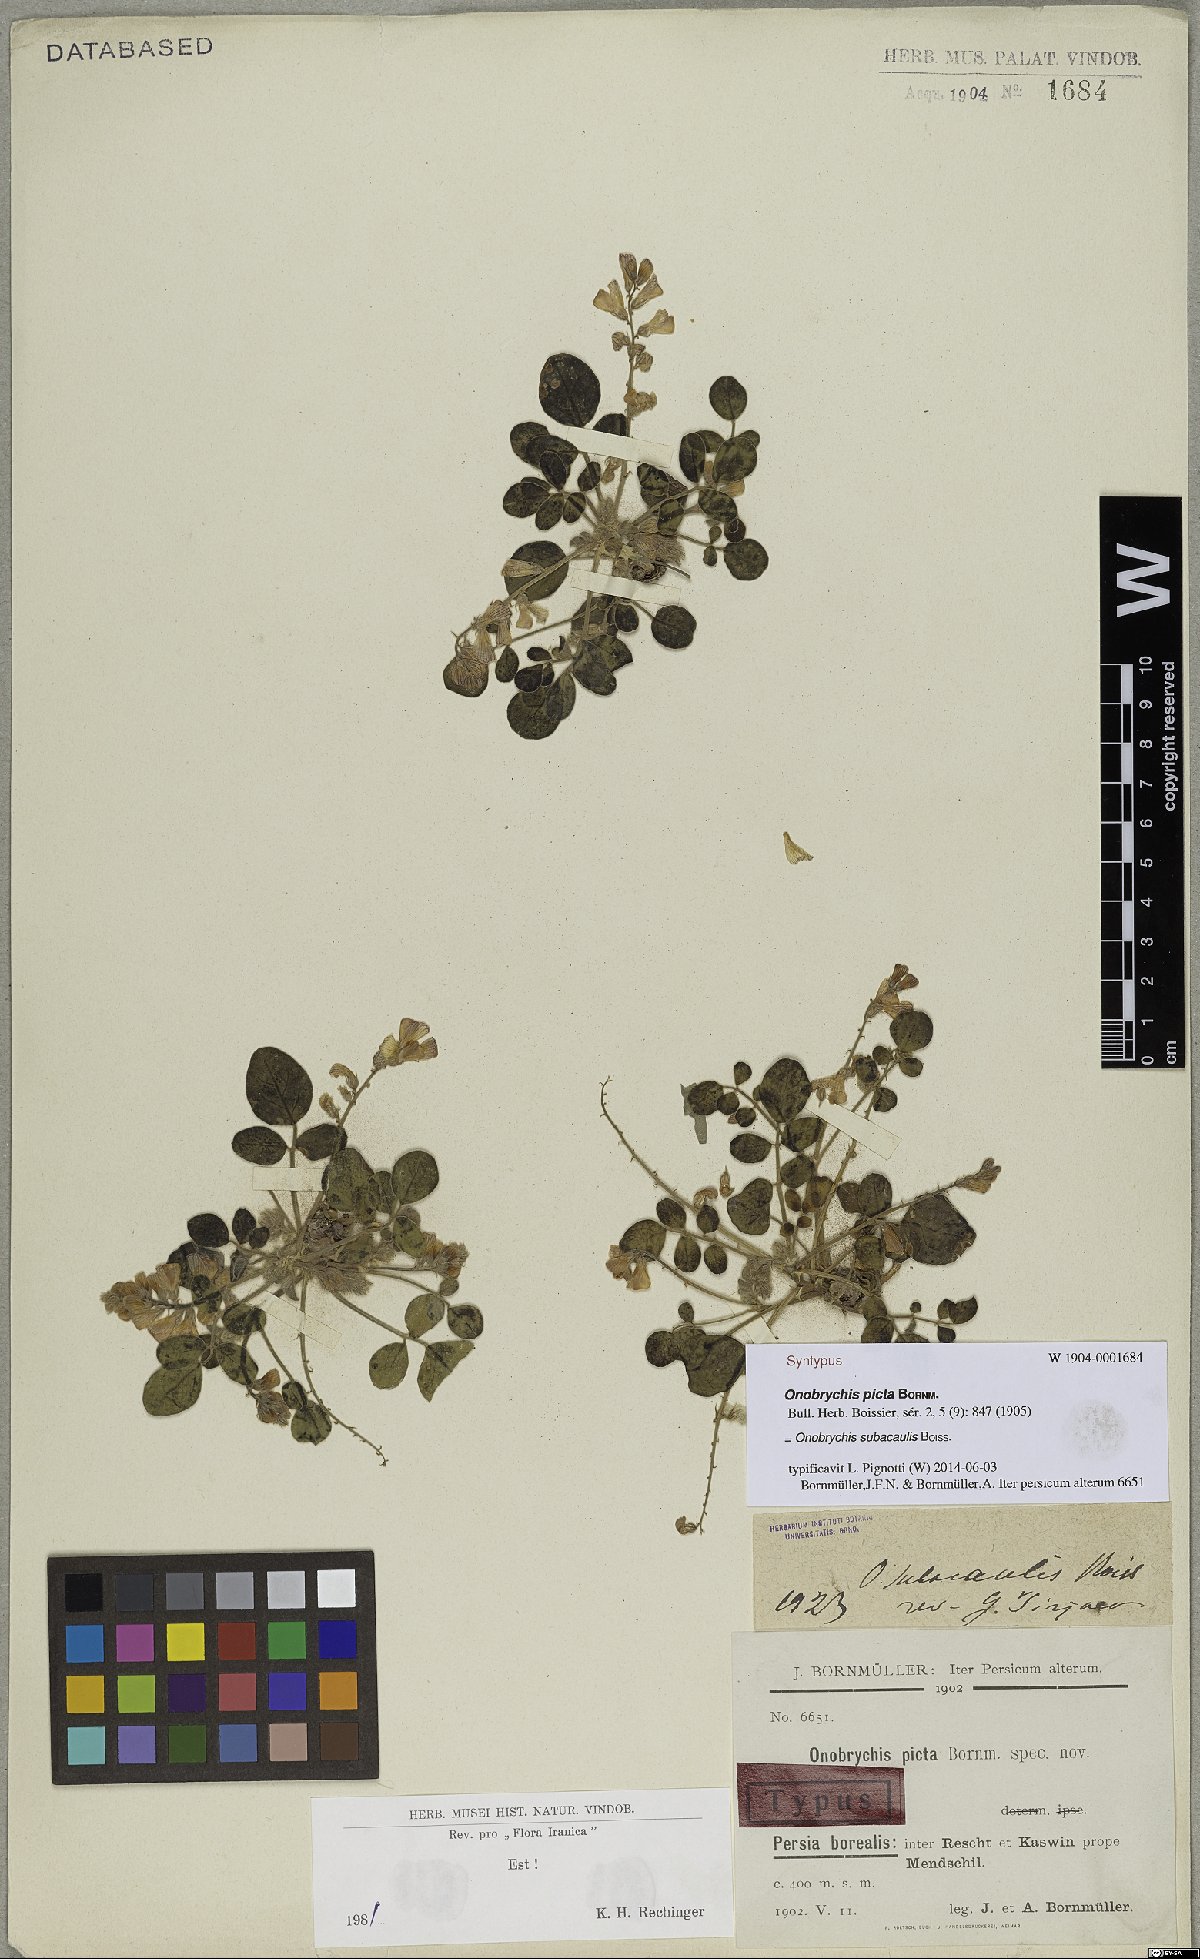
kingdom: Plantae
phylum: Tracheophyta
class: Magnoliopsida
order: Fabales
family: Fabaceae
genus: Onobrychis
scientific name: Onobrychis subacaulis
